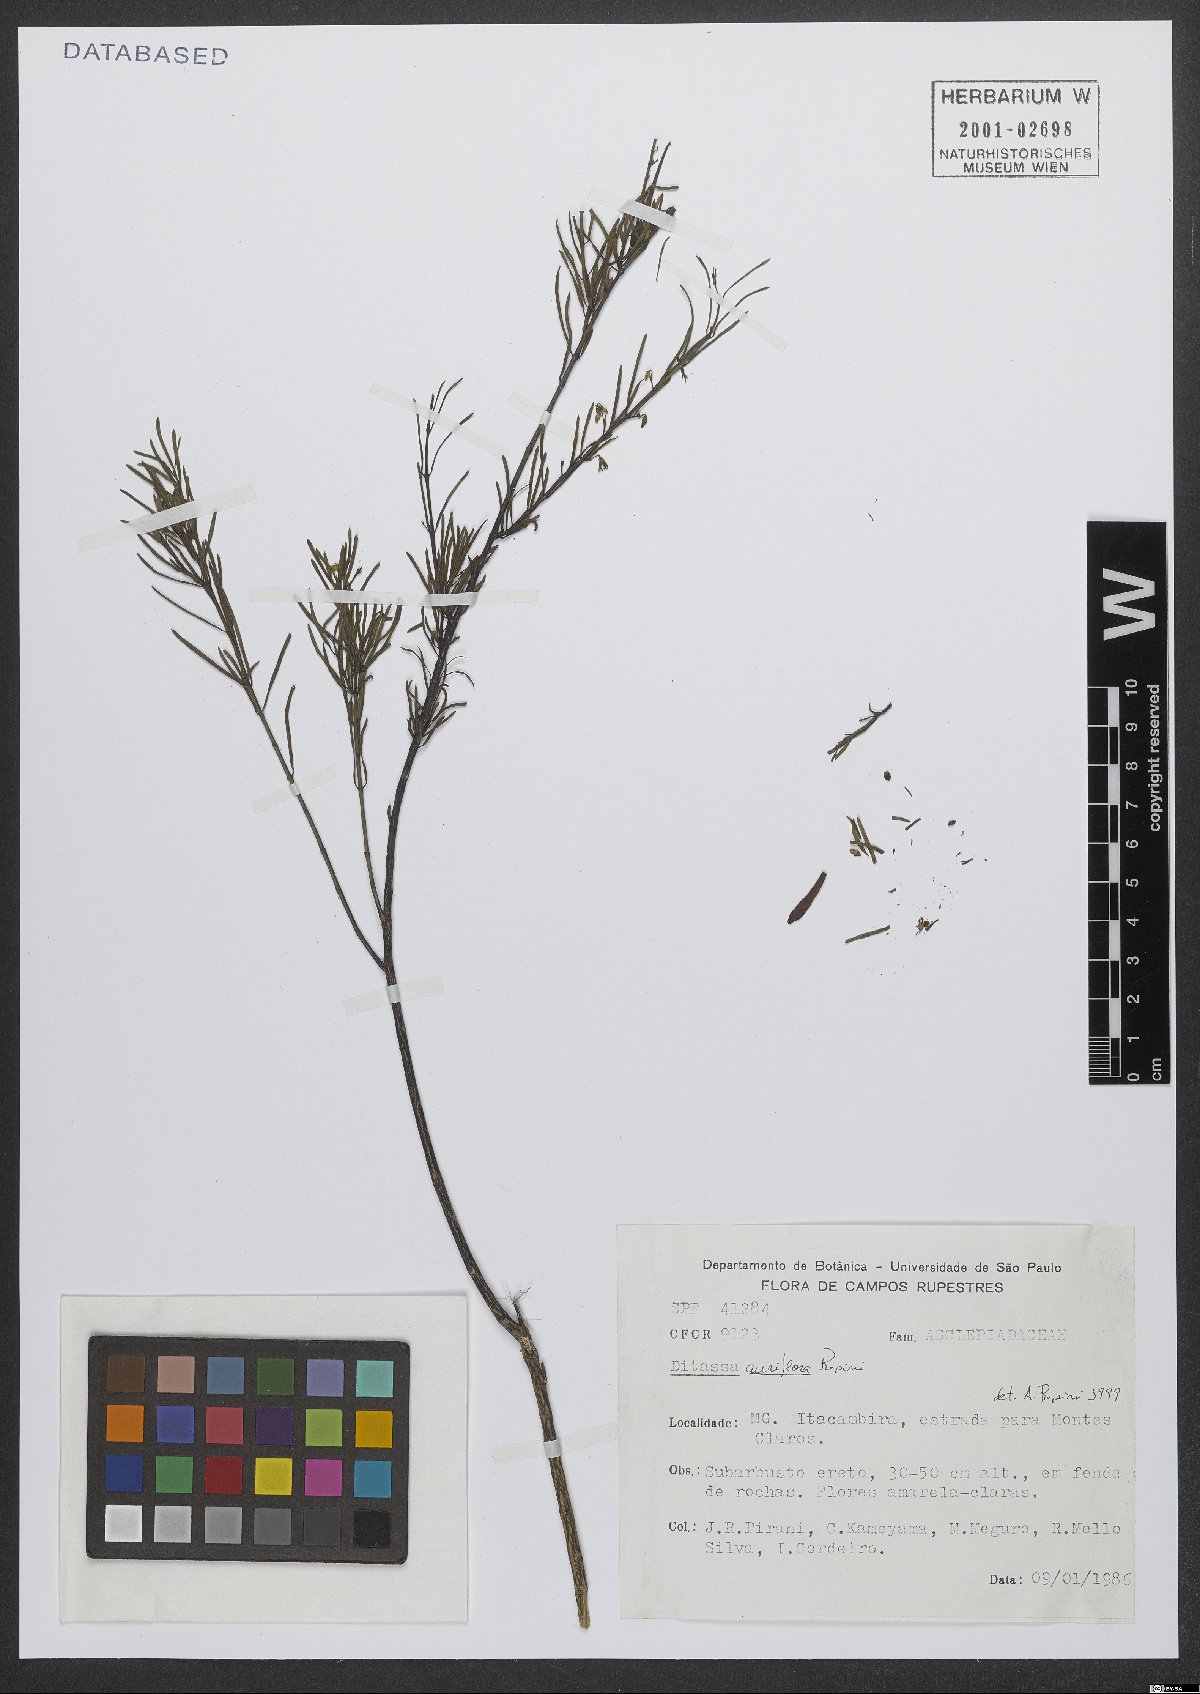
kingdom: Plantae
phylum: Tracheophyta
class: Magnoliopsida
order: Gentianales
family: Apocynaceae
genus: Ditassa
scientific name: Ditassa auriflora
